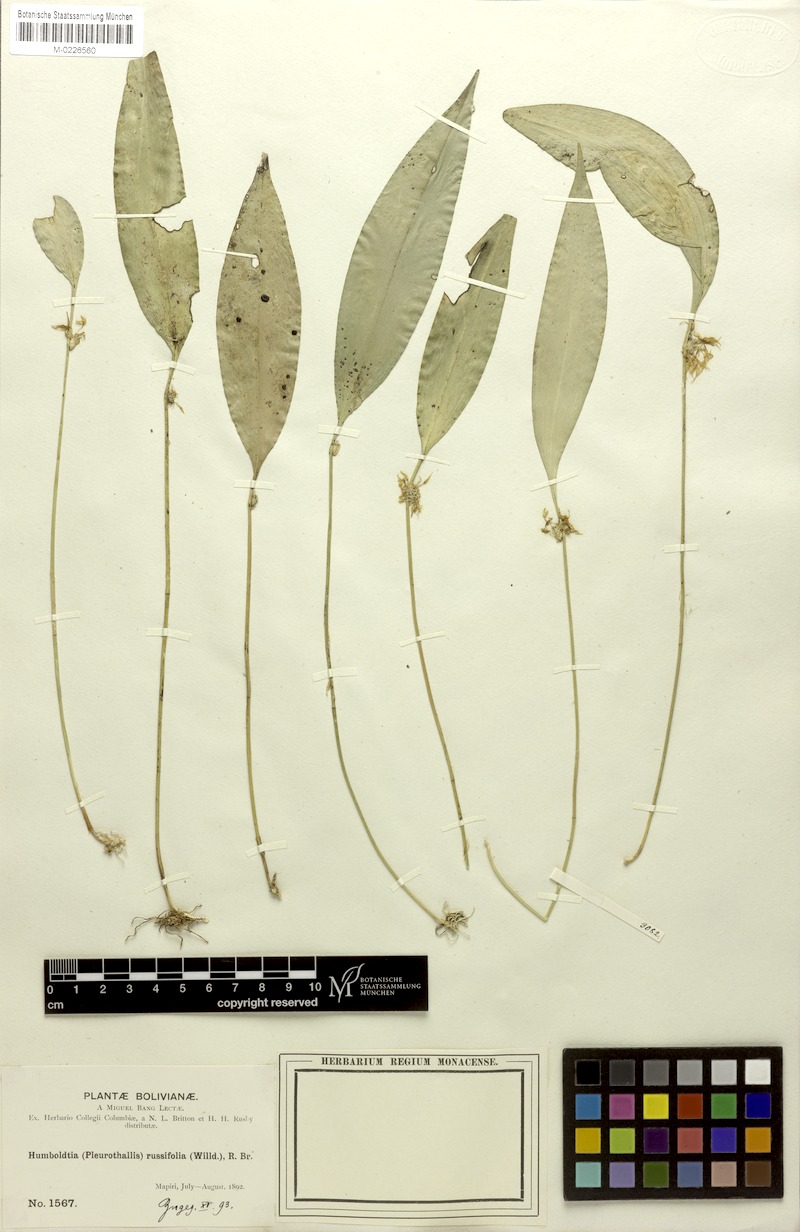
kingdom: Plantae
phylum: Tracheophyta
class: Liliopsida
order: Asparagales
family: Orchidaceae
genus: Pleurothallis
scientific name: Pleurothallis ruscifolia
